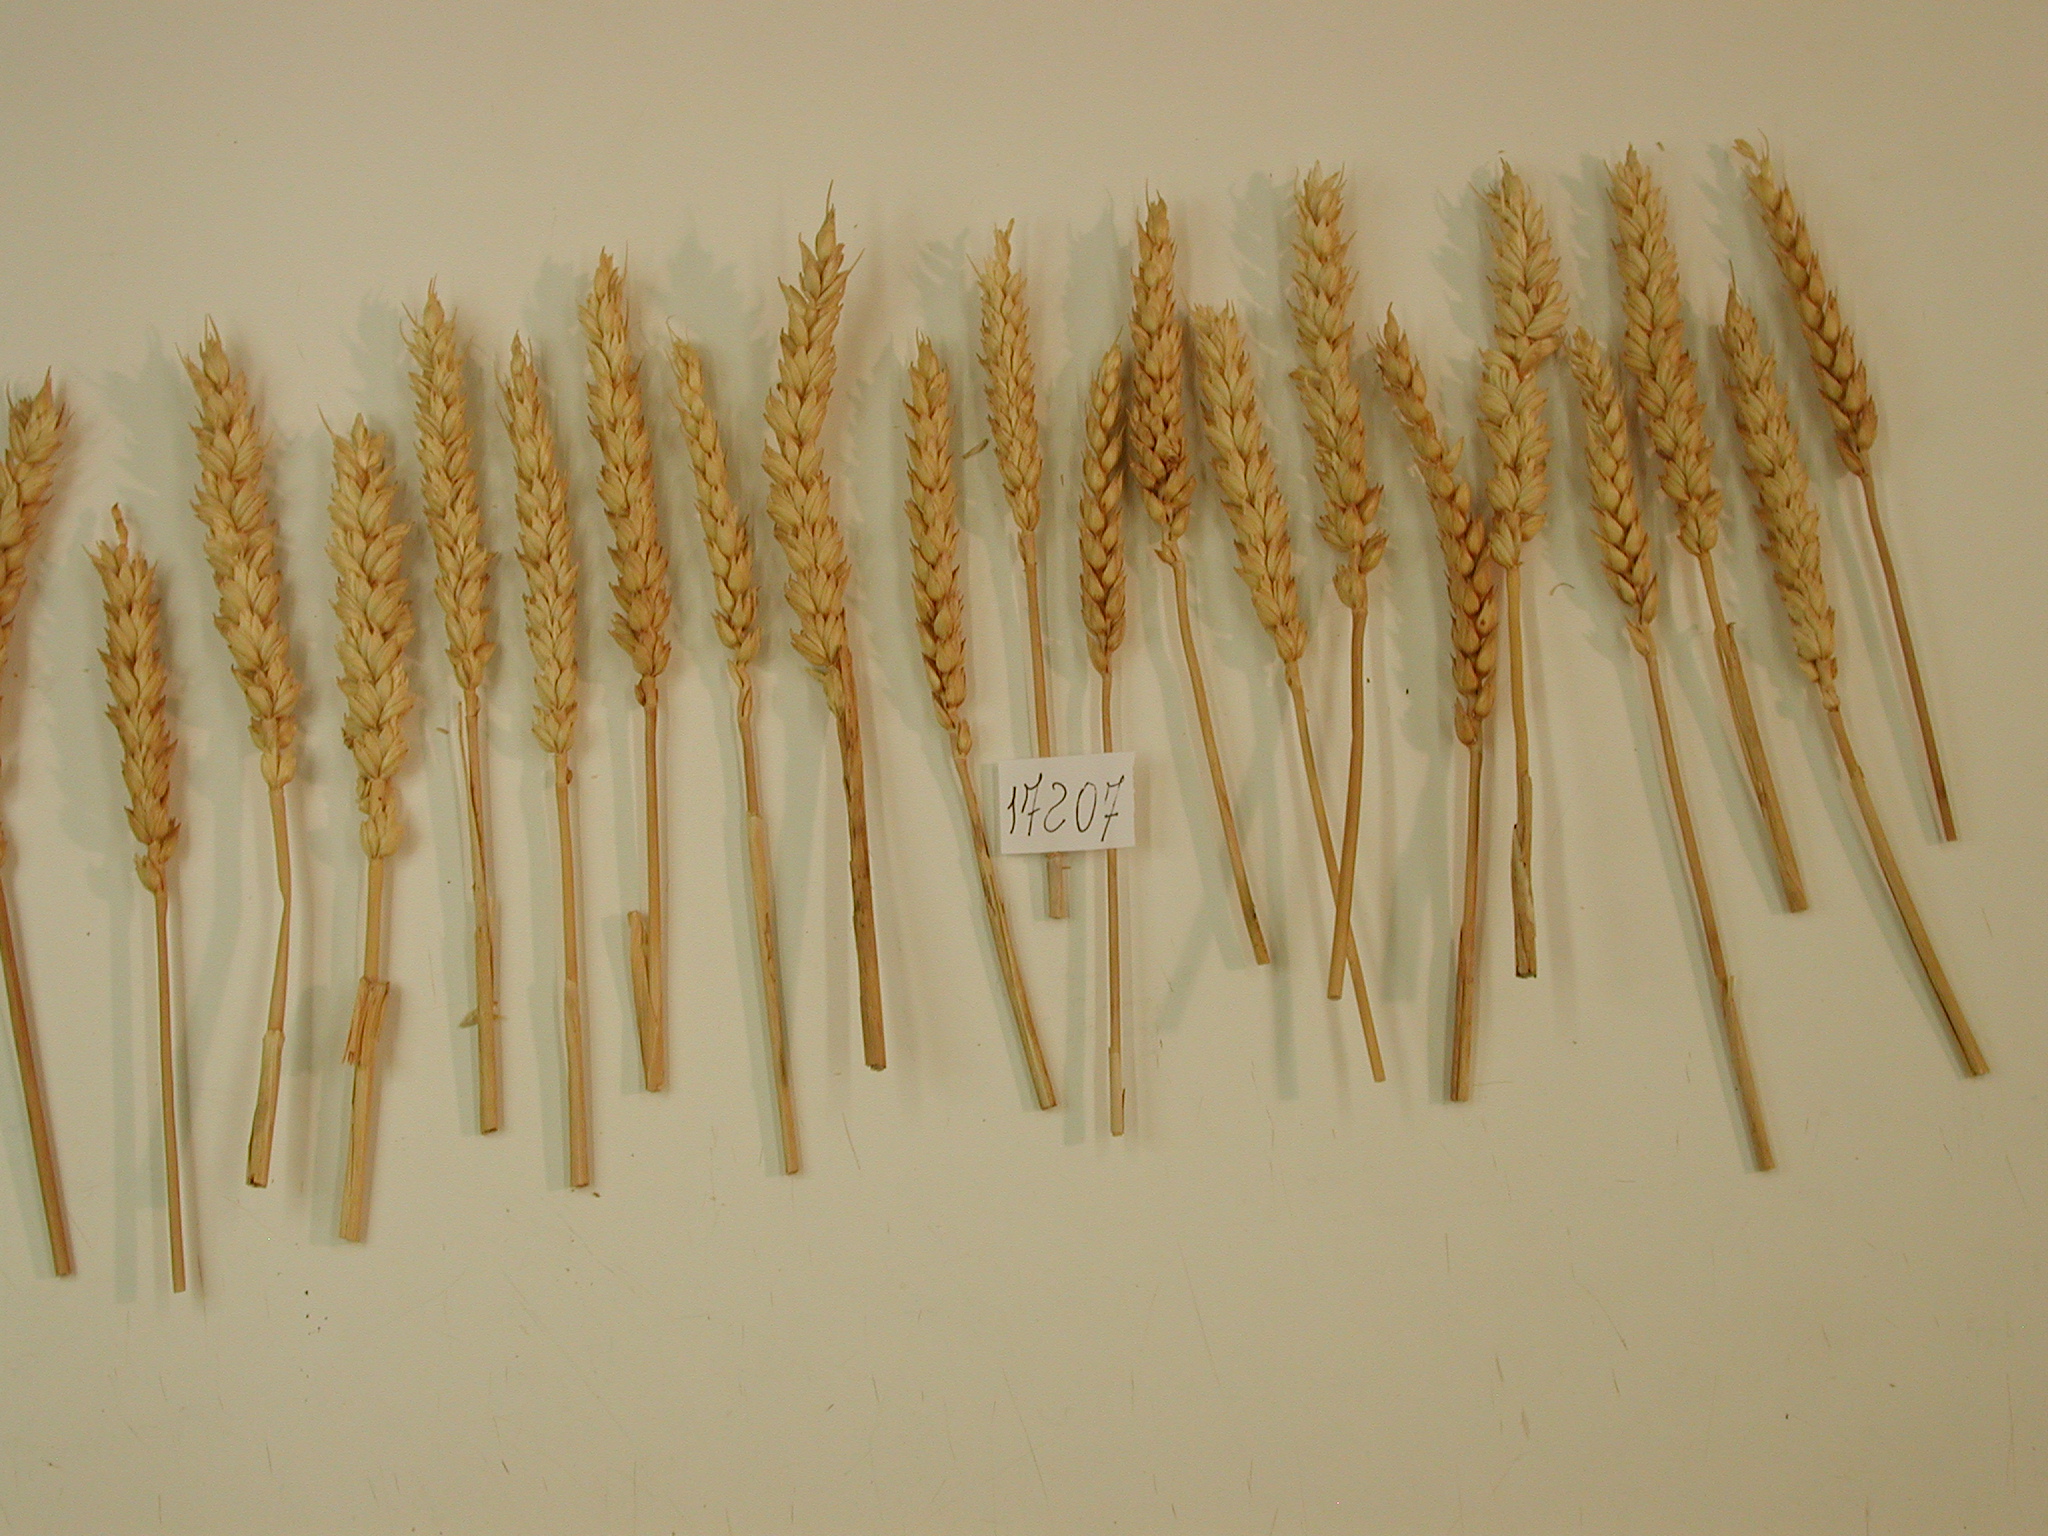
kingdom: Plantae
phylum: Tracheophyta
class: Liliopsida
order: Poales
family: Poaceae
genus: Triticum
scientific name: Triticum
